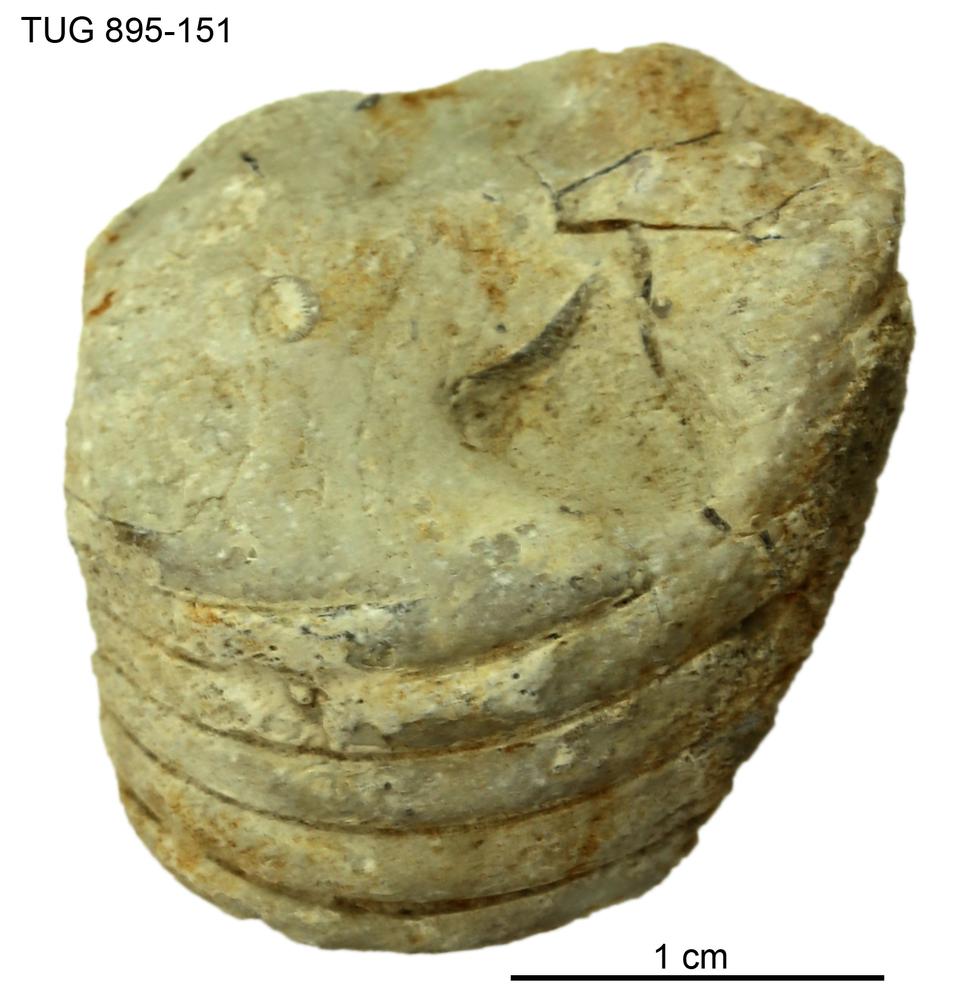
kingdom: Animalia
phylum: Mollusca
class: Cephalopoda
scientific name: Cephalopoda
